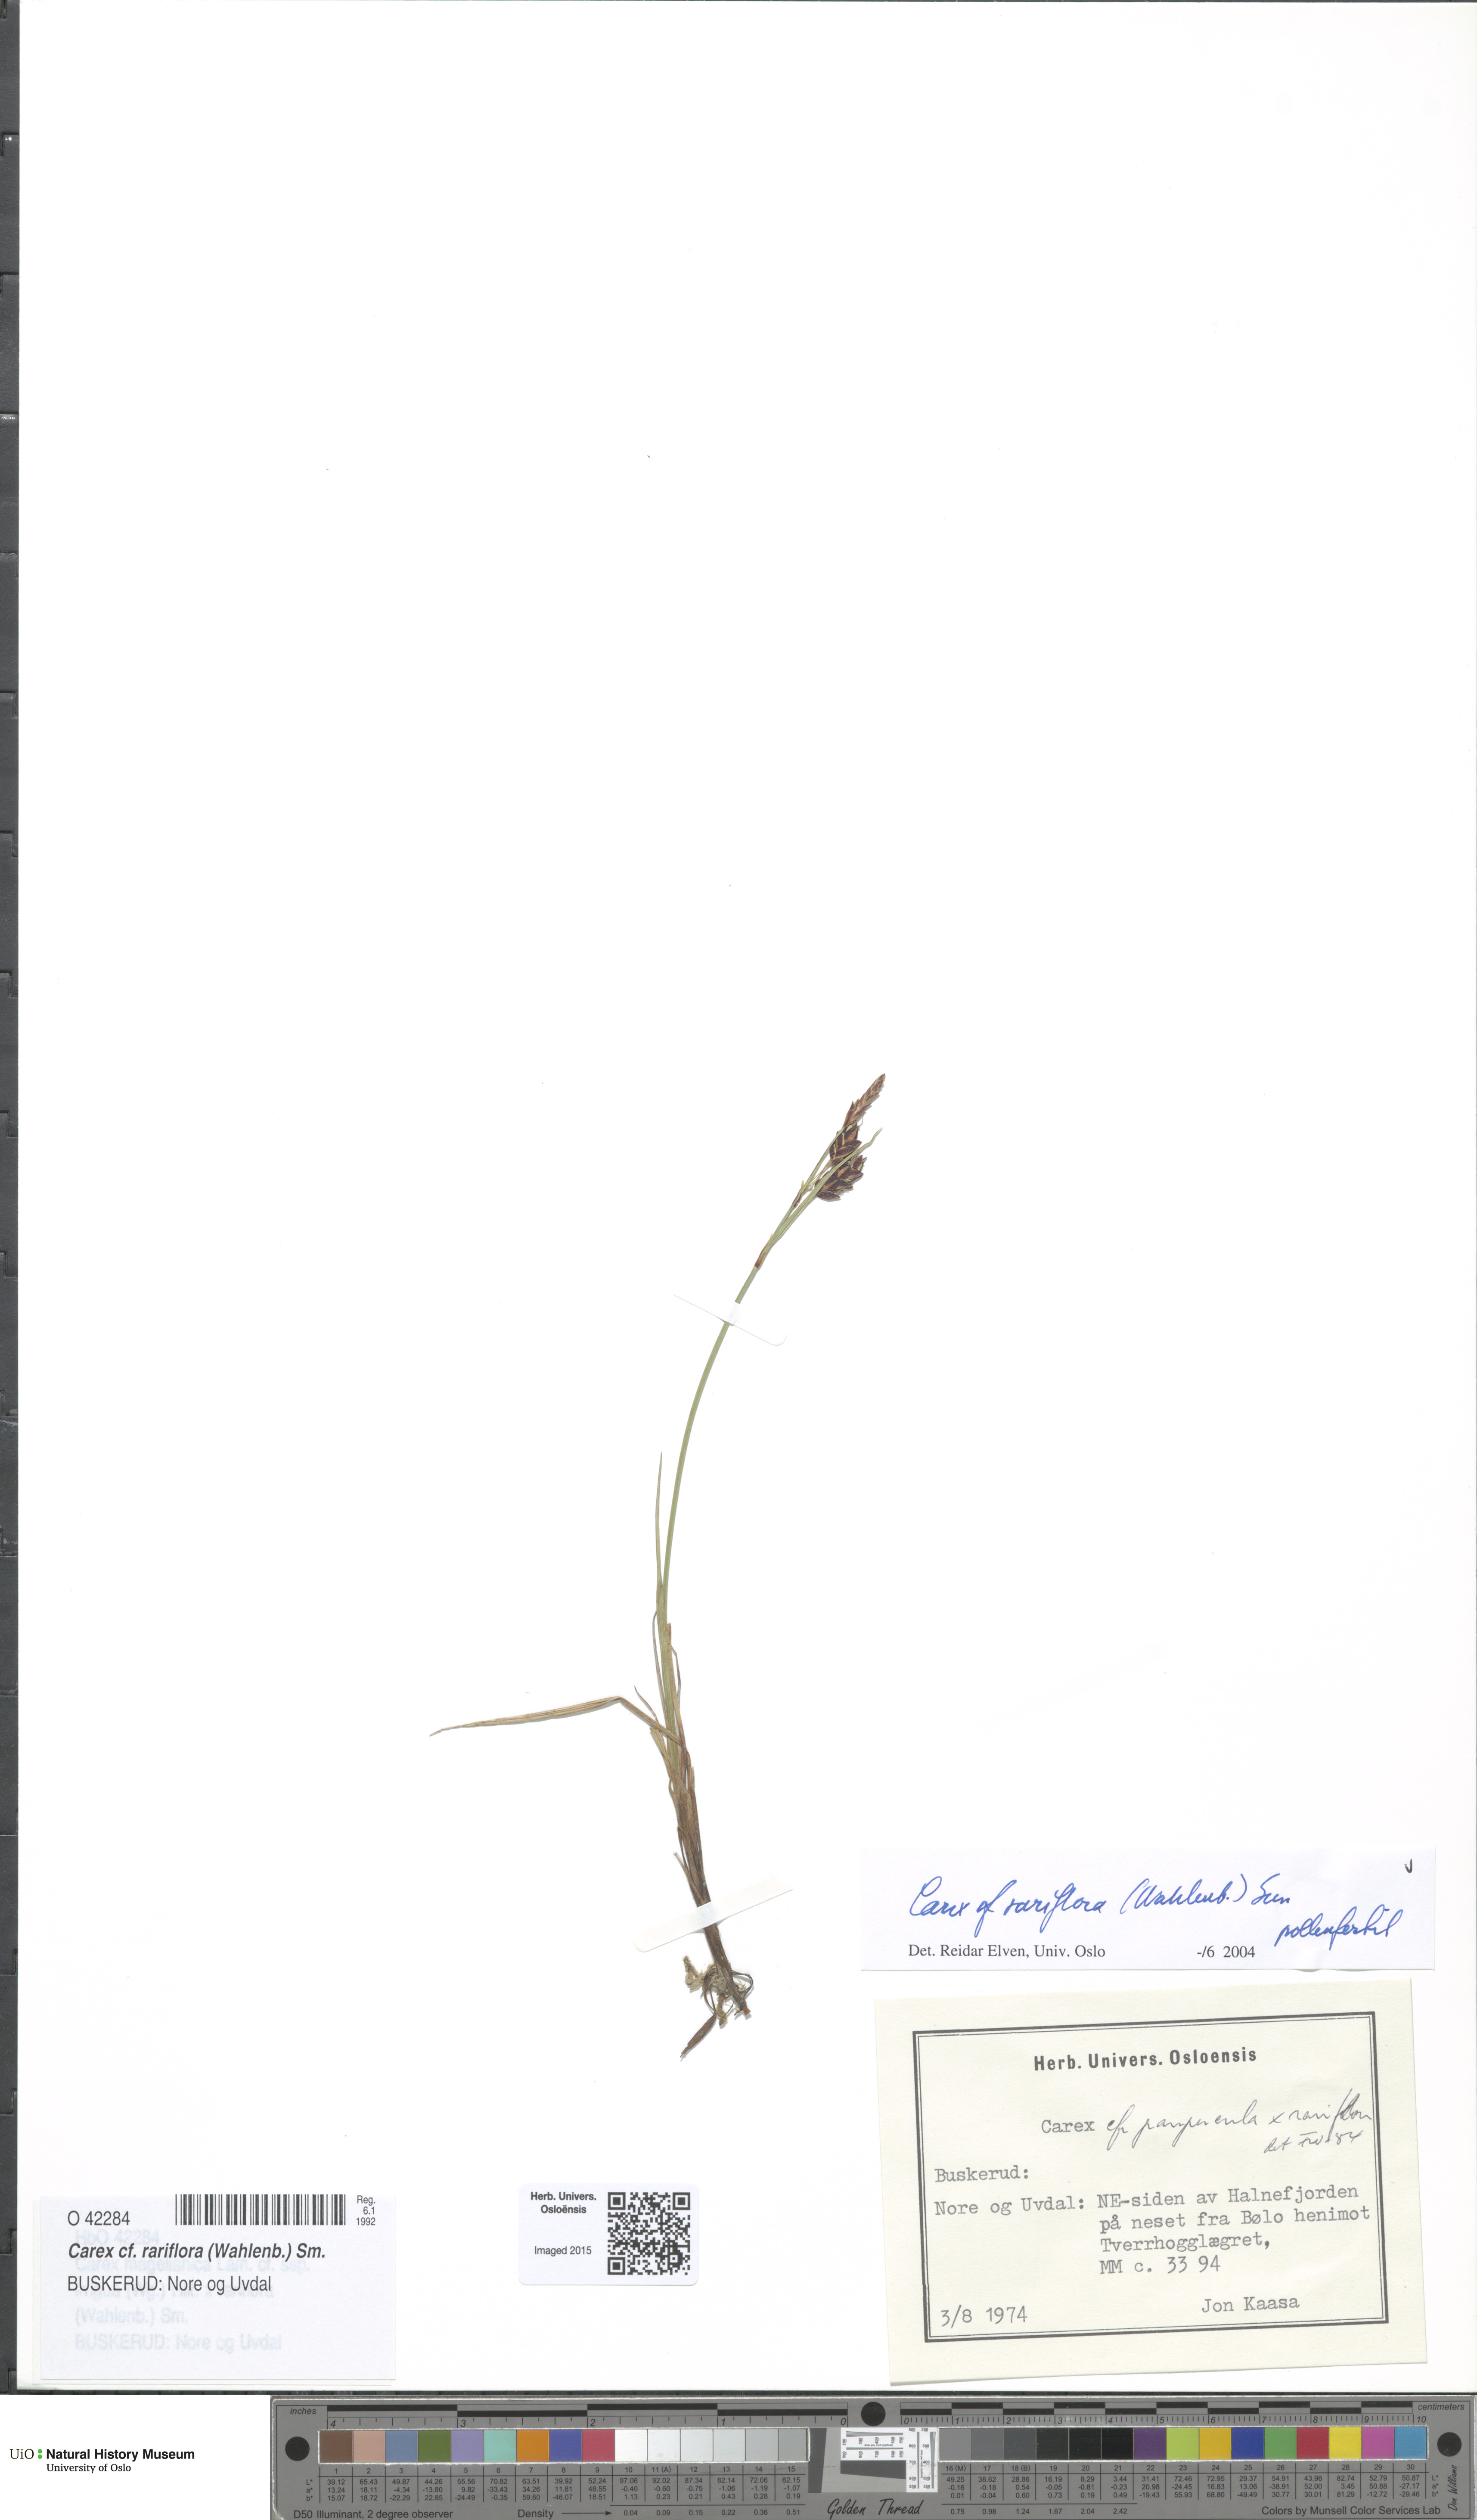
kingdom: Plantae
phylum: Tracheophyta
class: Liliopsida
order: Poales
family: Cyperaceae
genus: Carex
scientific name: Carex rariflora
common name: Loose-flowered alpine sedge
